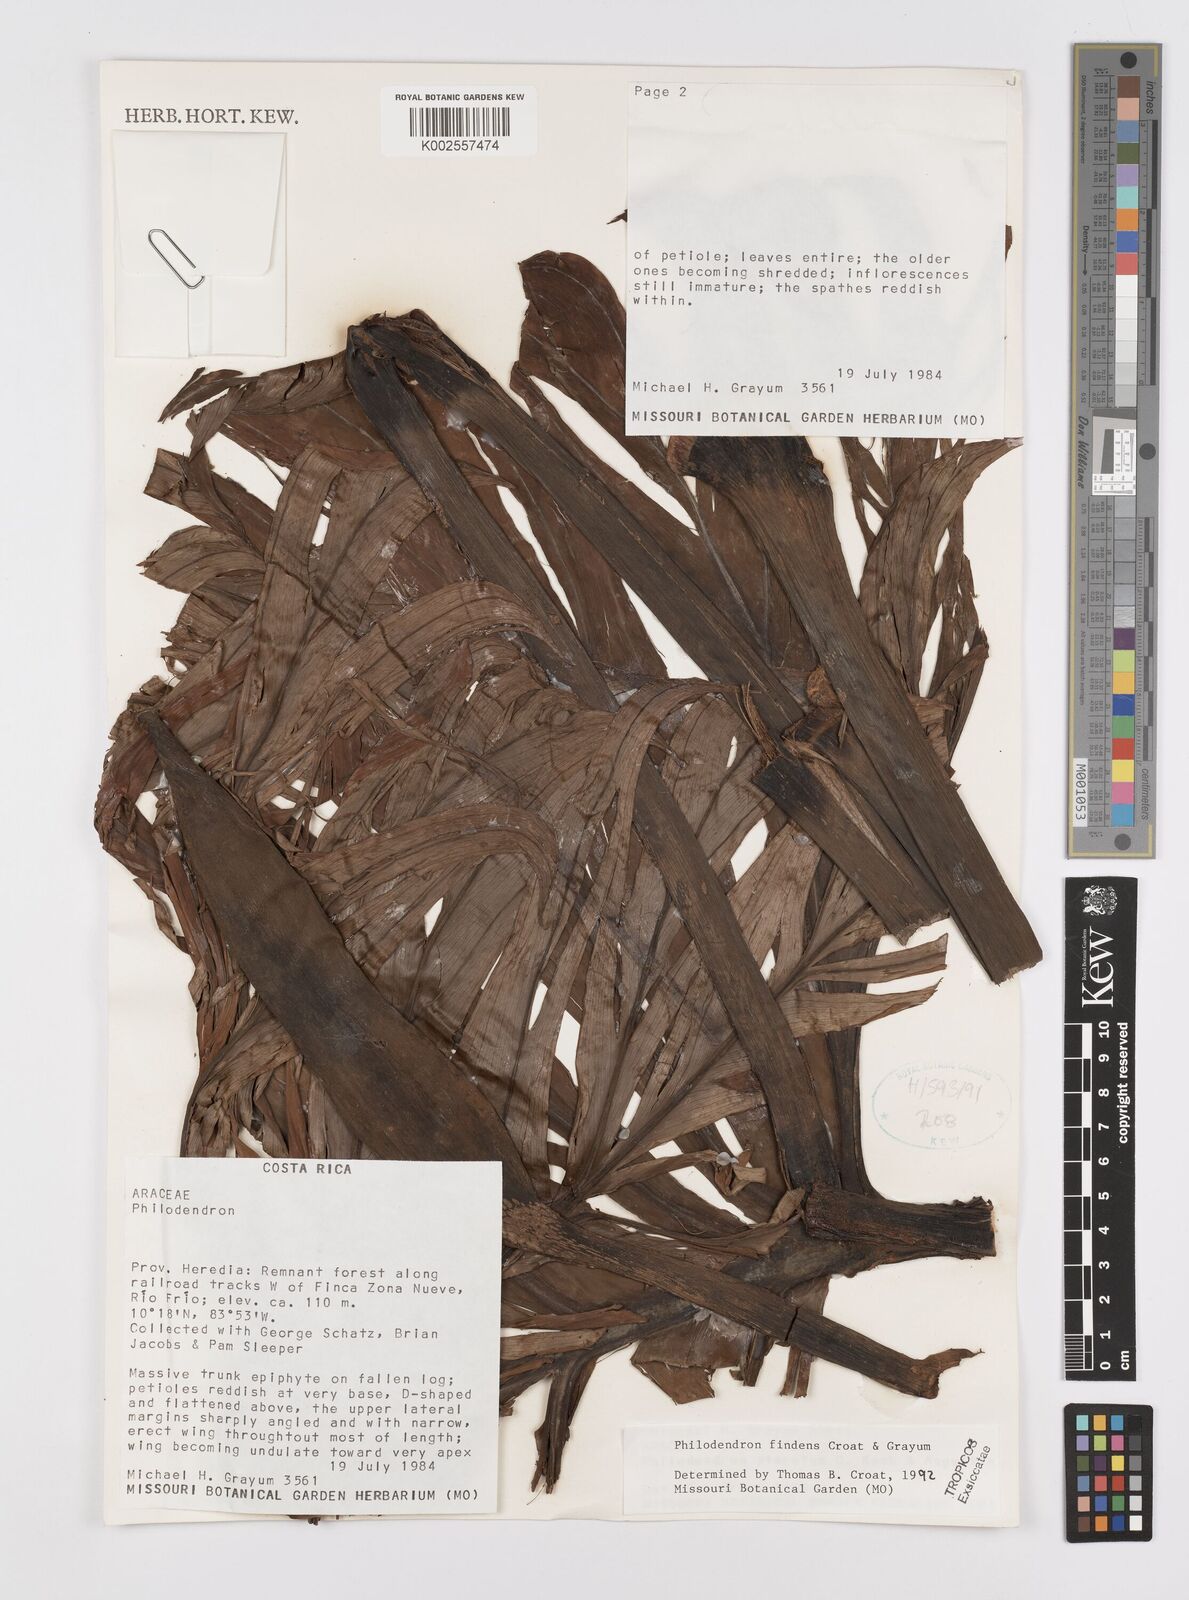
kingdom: Plantae
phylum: Tracheophyta
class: Liliopsida
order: Alismatales
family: Araceae
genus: Philodendron
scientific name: Philodendron findens
